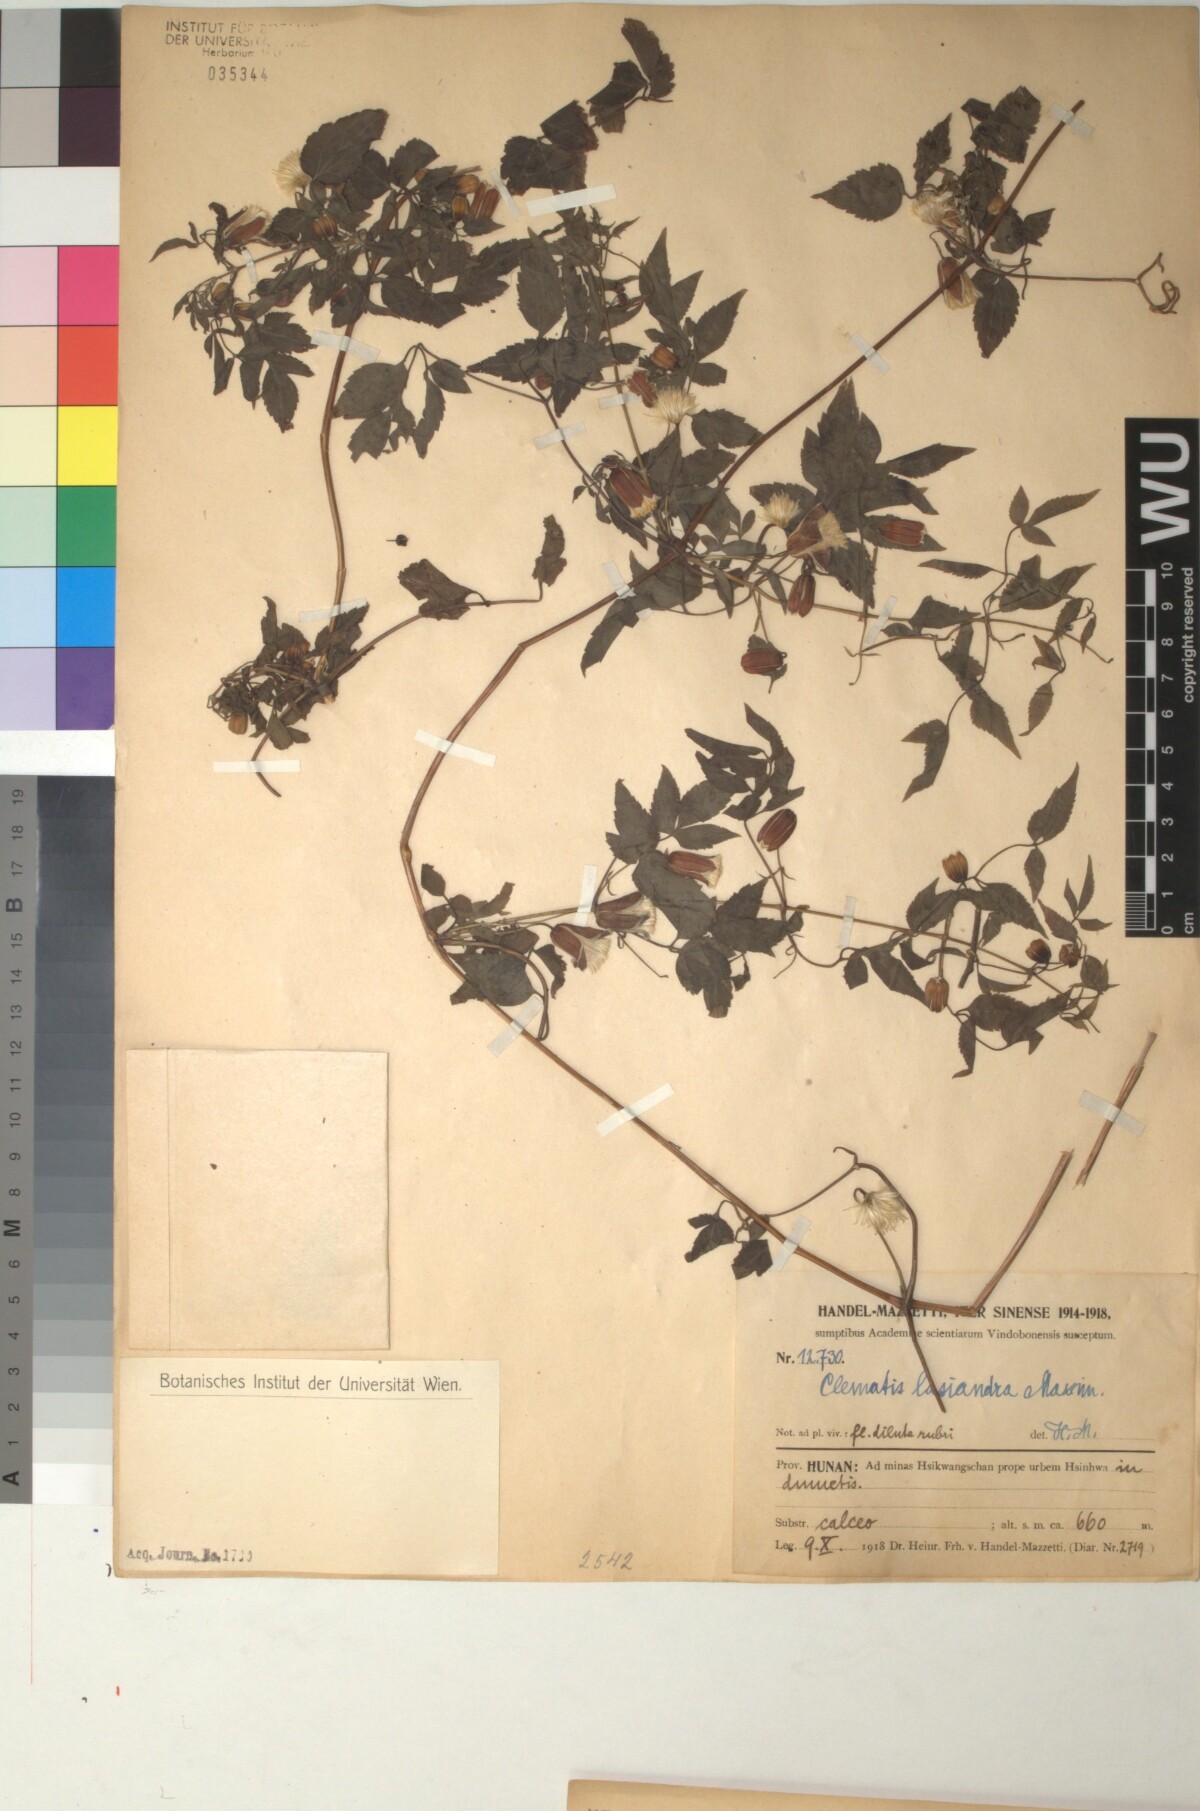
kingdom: Plantae
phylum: Tracheophyta
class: Magnoliopsida
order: Ranunculales
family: Ranunculaceae
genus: Clematis
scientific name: Clematis lasiandra
